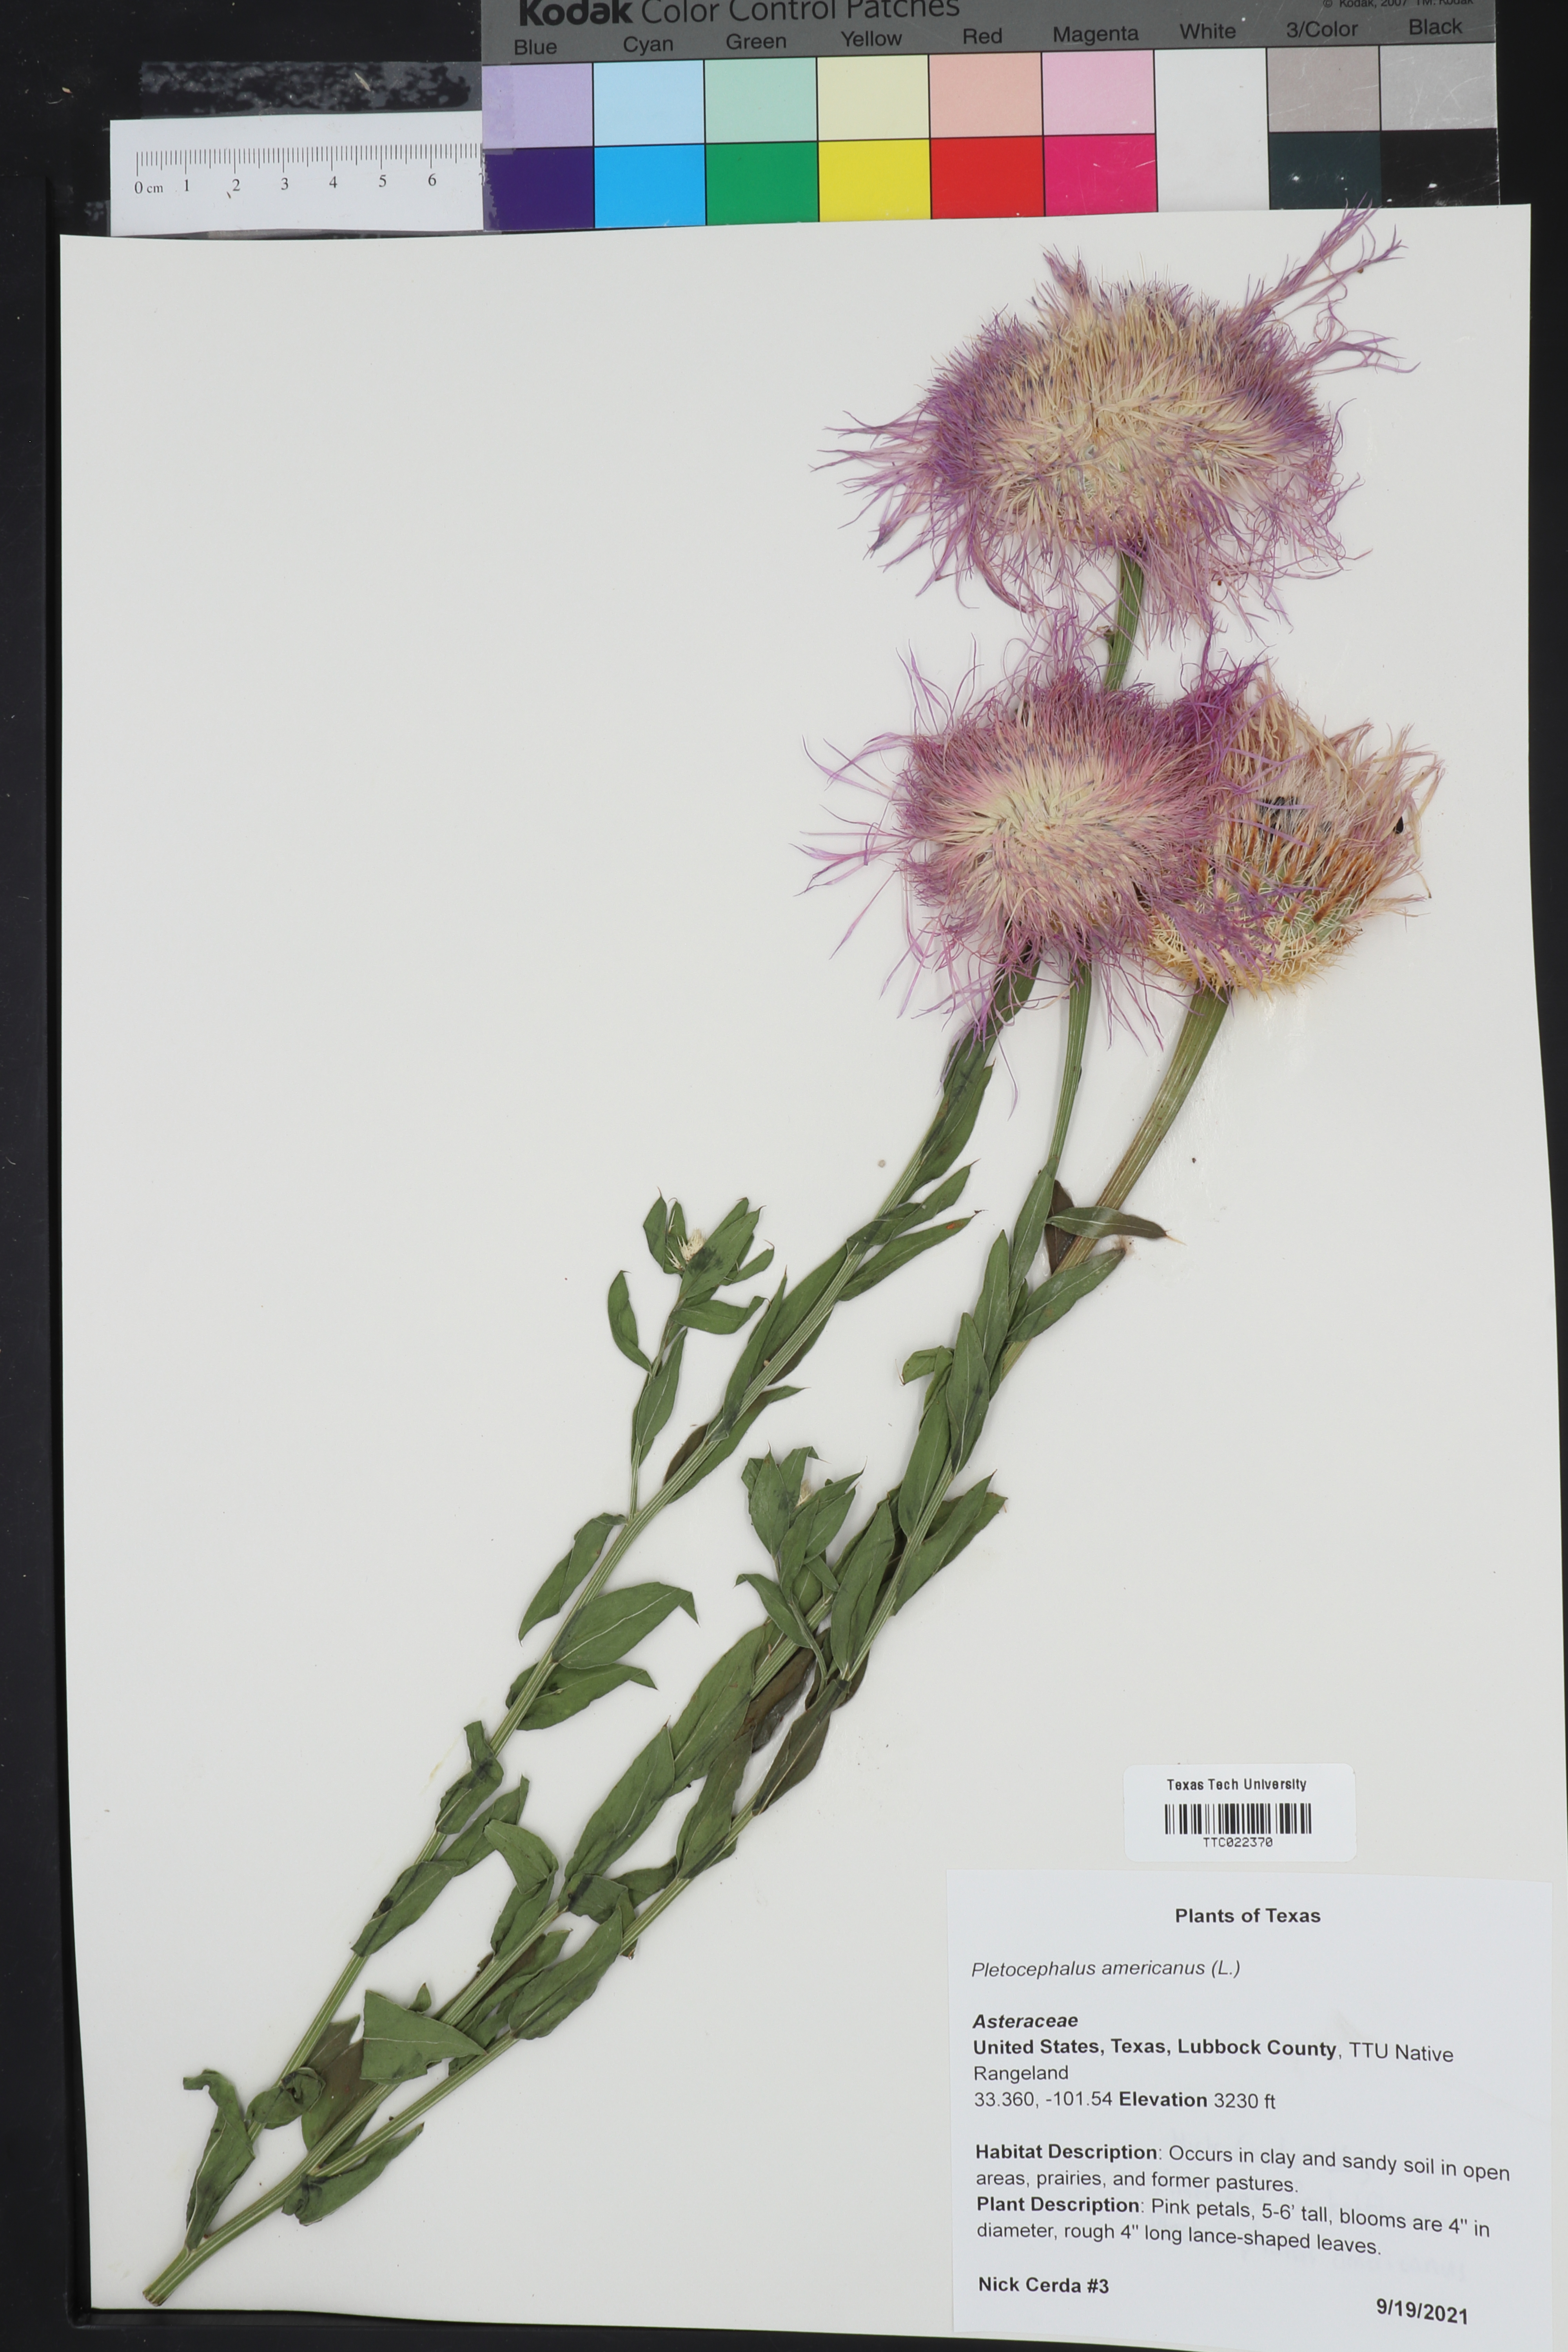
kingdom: Plantae
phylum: Tracheophyta
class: Magnoliopsida
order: Asterales
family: Asteraceae
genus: Plectocephalus
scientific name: Plectocephalus americanus
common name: American basket-flower
